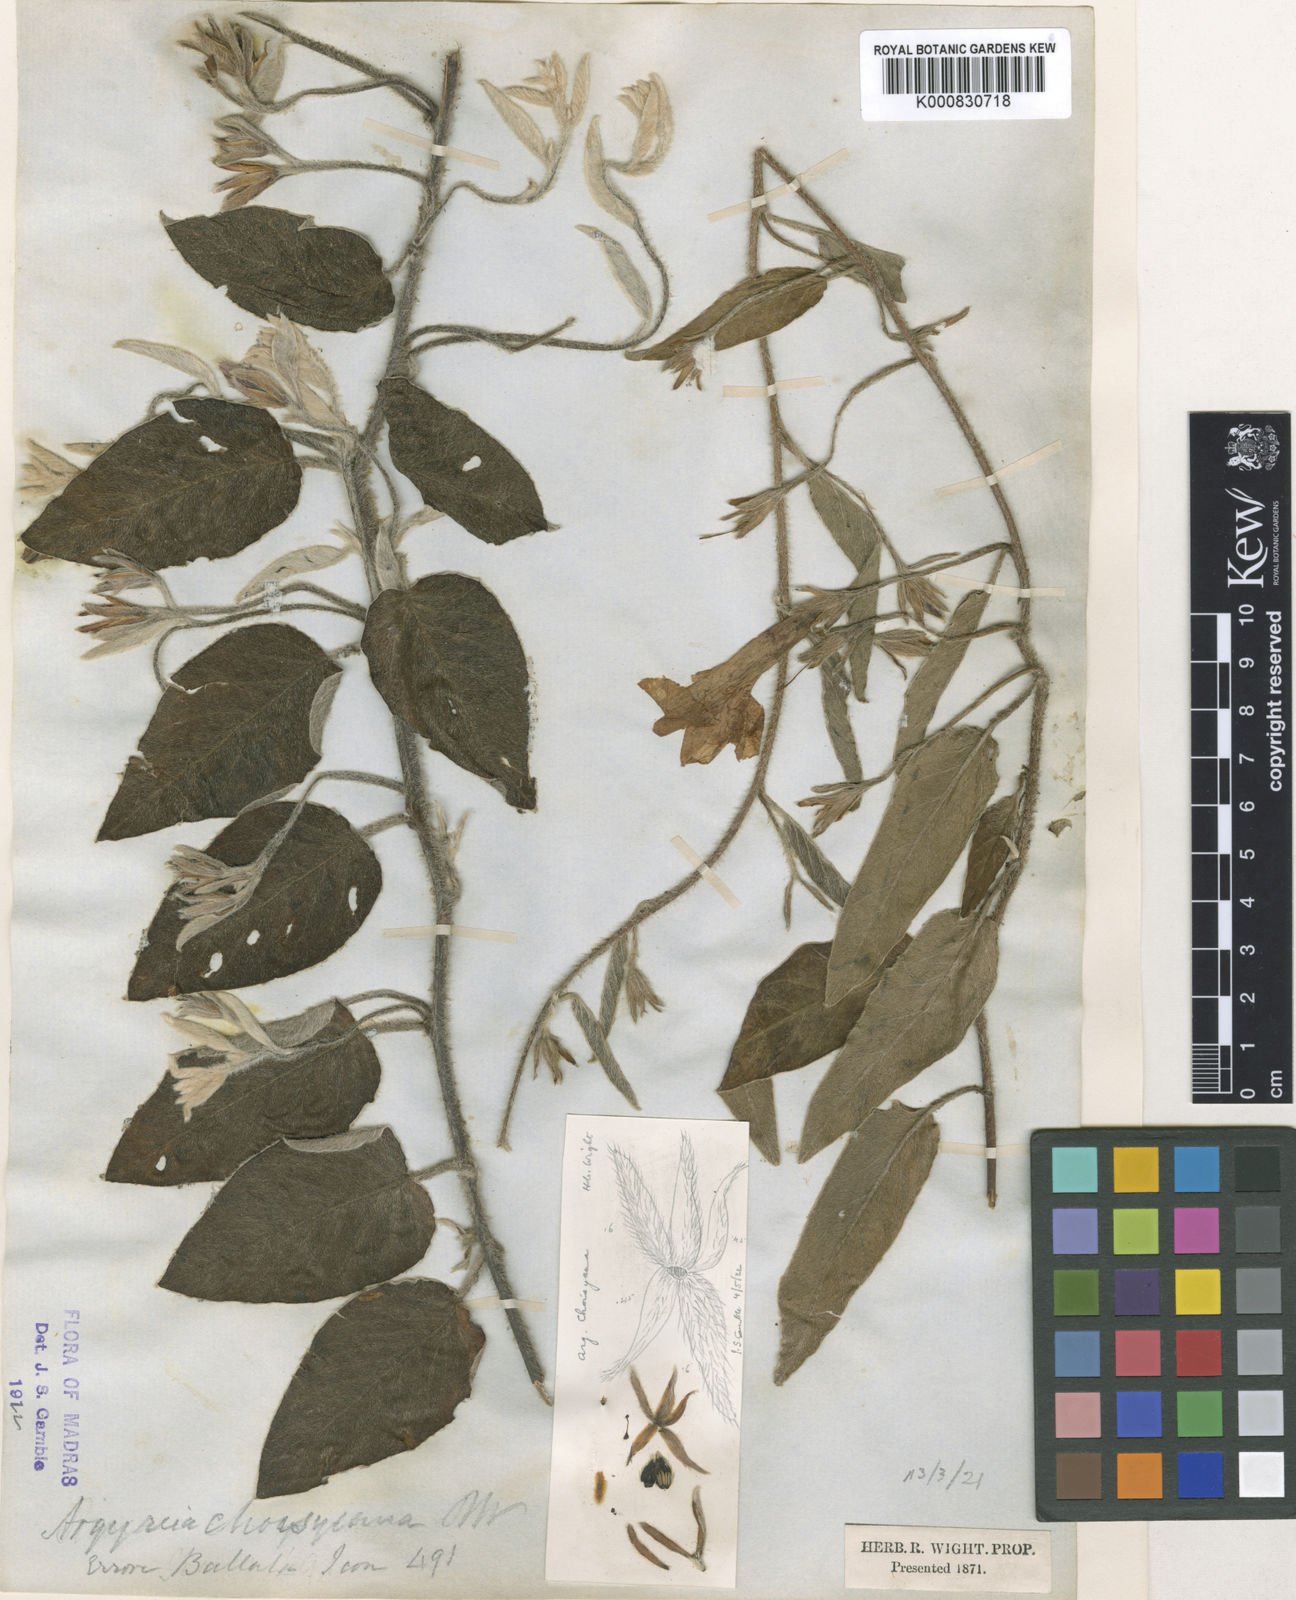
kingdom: Plantae
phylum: Tracheophyta
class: Magnoliopsida
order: Solanales
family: Convolvulaceae
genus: Argyreia
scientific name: Argyreia
